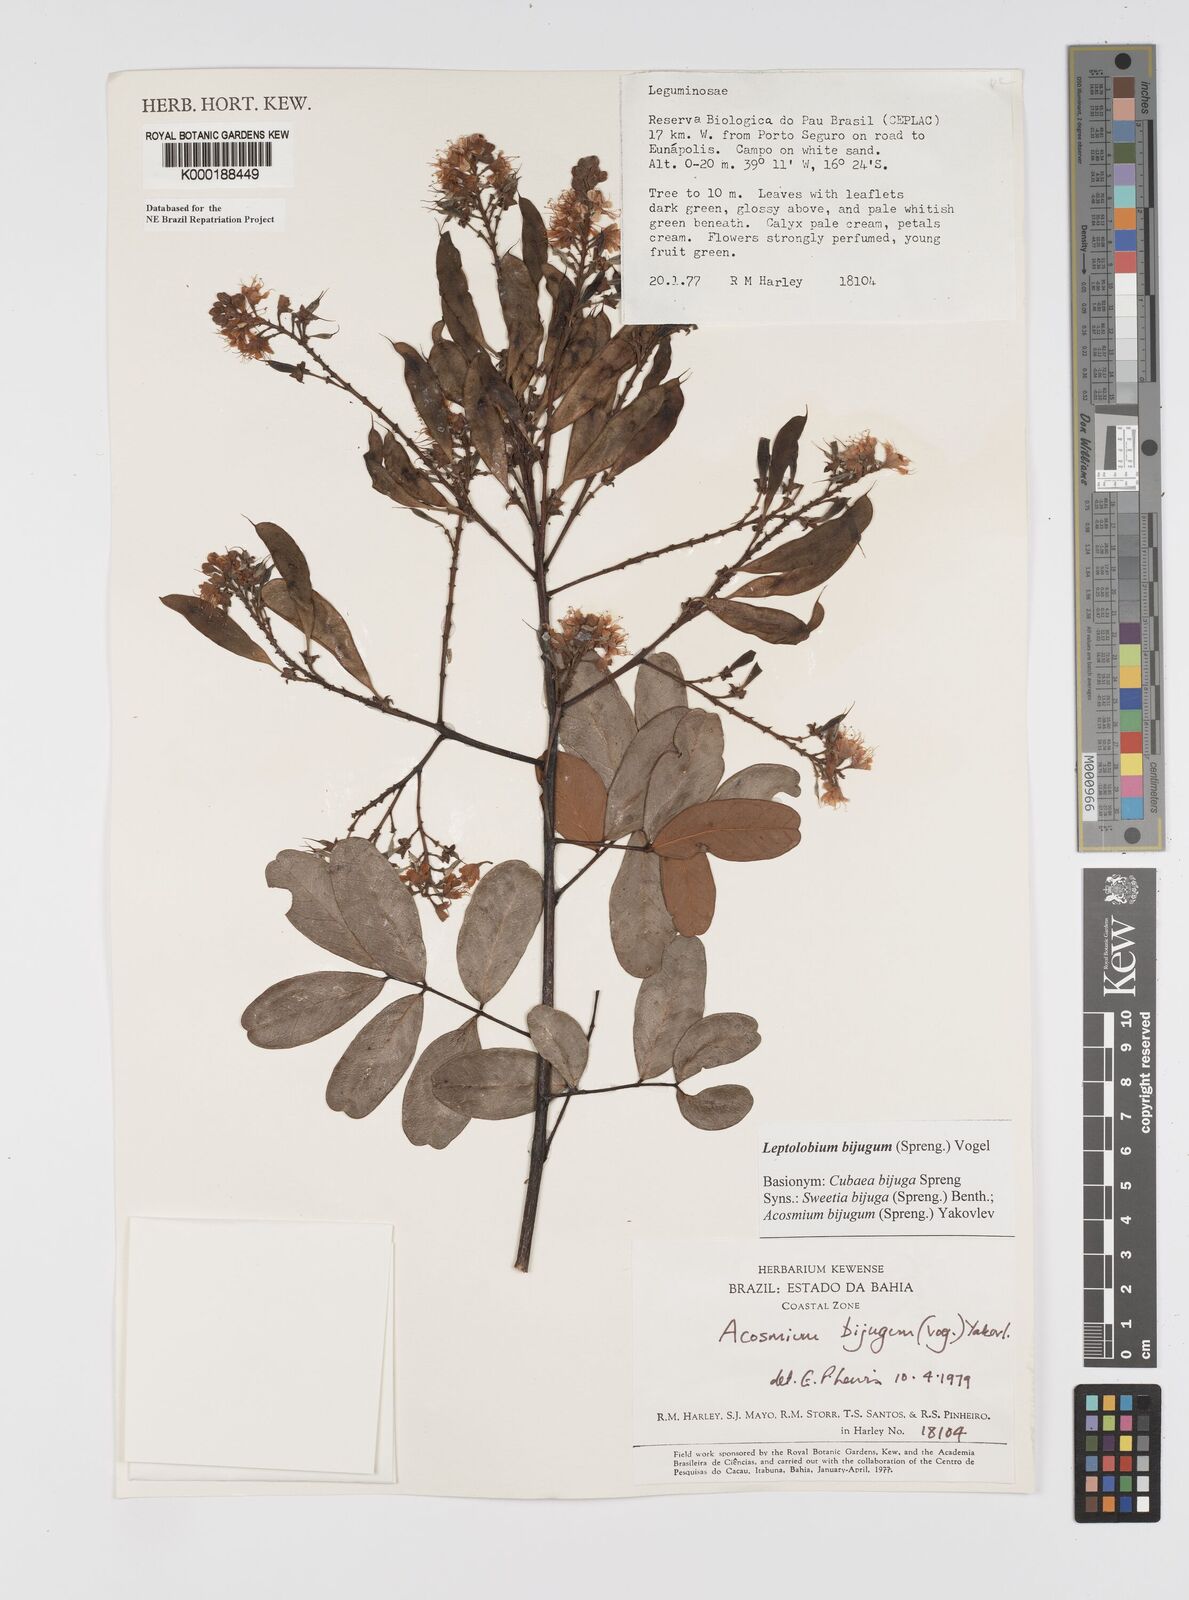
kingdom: Plantae
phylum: Tracheophyta
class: Magnoliopsida
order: Fabales
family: Fabaceae
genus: Leptolobium
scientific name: Leptolobium bijugum
